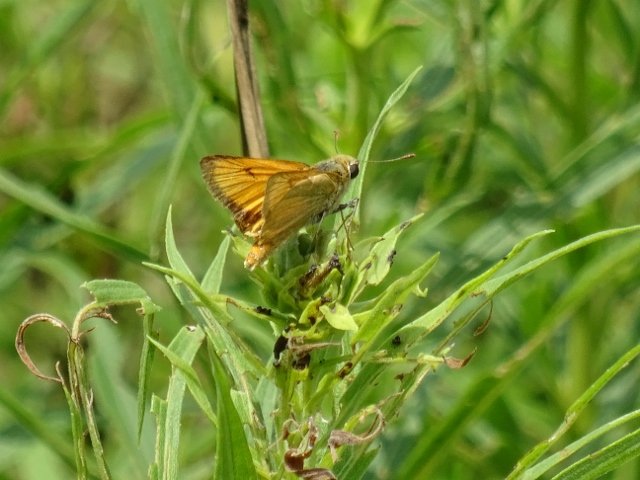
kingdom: Animalia
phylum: Arthropoda
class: Insecta
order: Lepidoptera
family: Hesperiidae
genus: Atrytone
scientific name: Atrytone delaware
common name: Delaware Skipper
